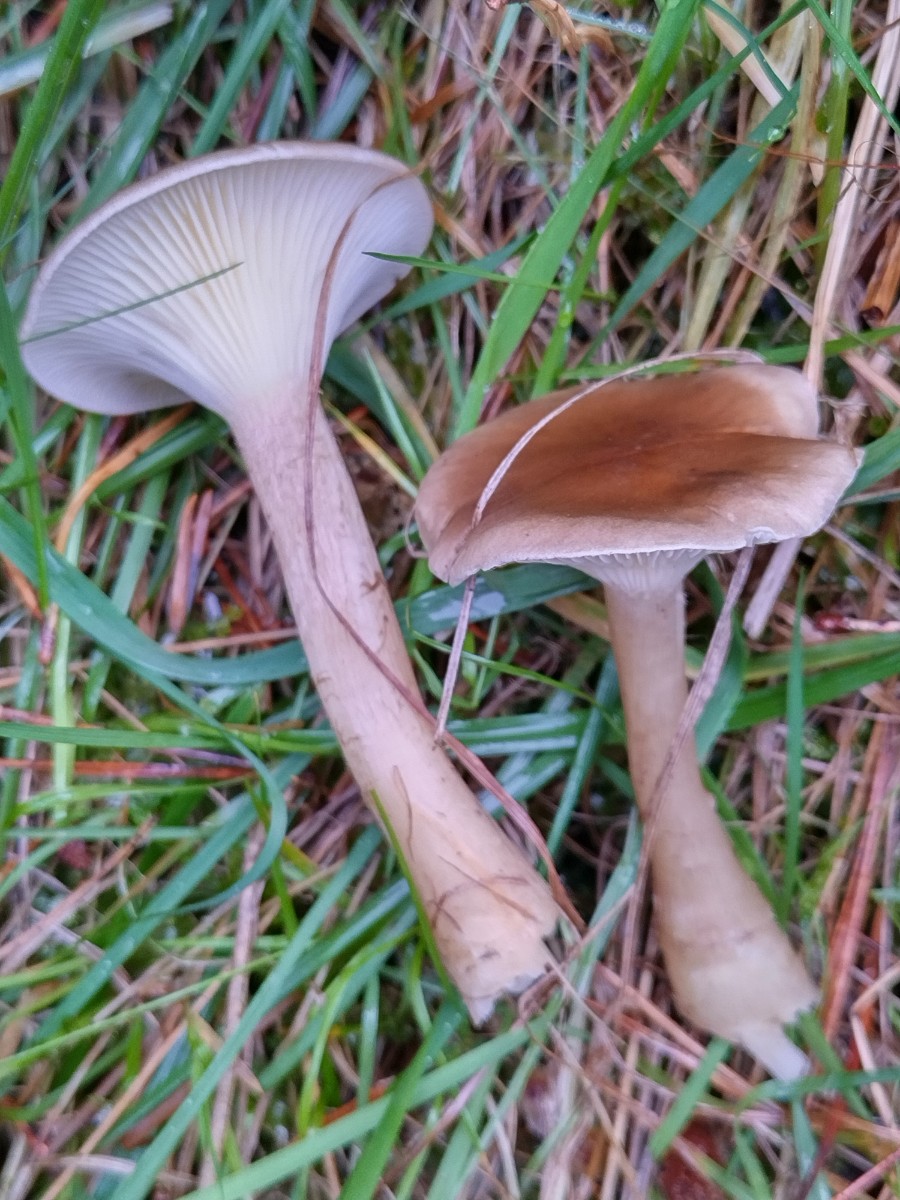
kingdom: Fungi
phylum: Basidiomycota
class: Agaricomycetes
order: Agaricales
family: Hygrophoraceae
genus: Ampulloclitocybe
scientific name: Ampulloclitocybe clavipes
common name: køllefod
